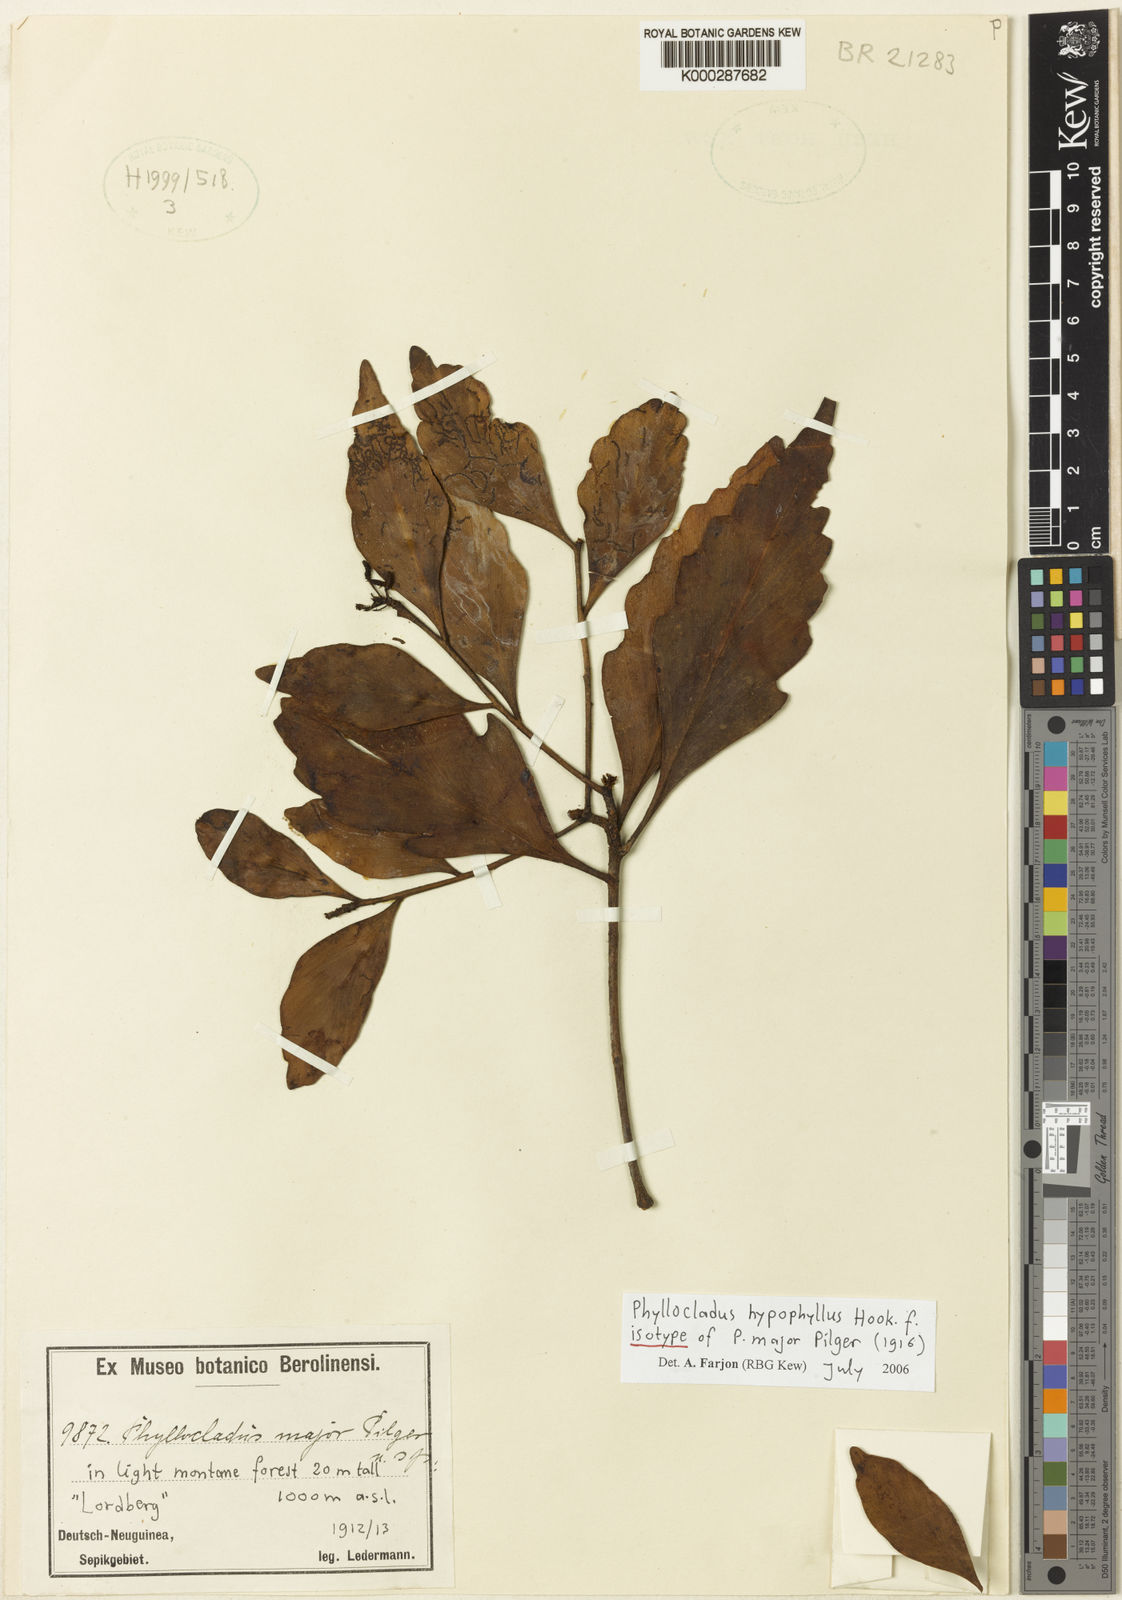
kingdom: Plantae
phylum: Tracheophyta
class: Pinopsida
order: Pinales
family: Phyllocladaceae
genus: Phyllocladus
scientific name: Phyllocladus hypophyllus
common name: Celery pine
